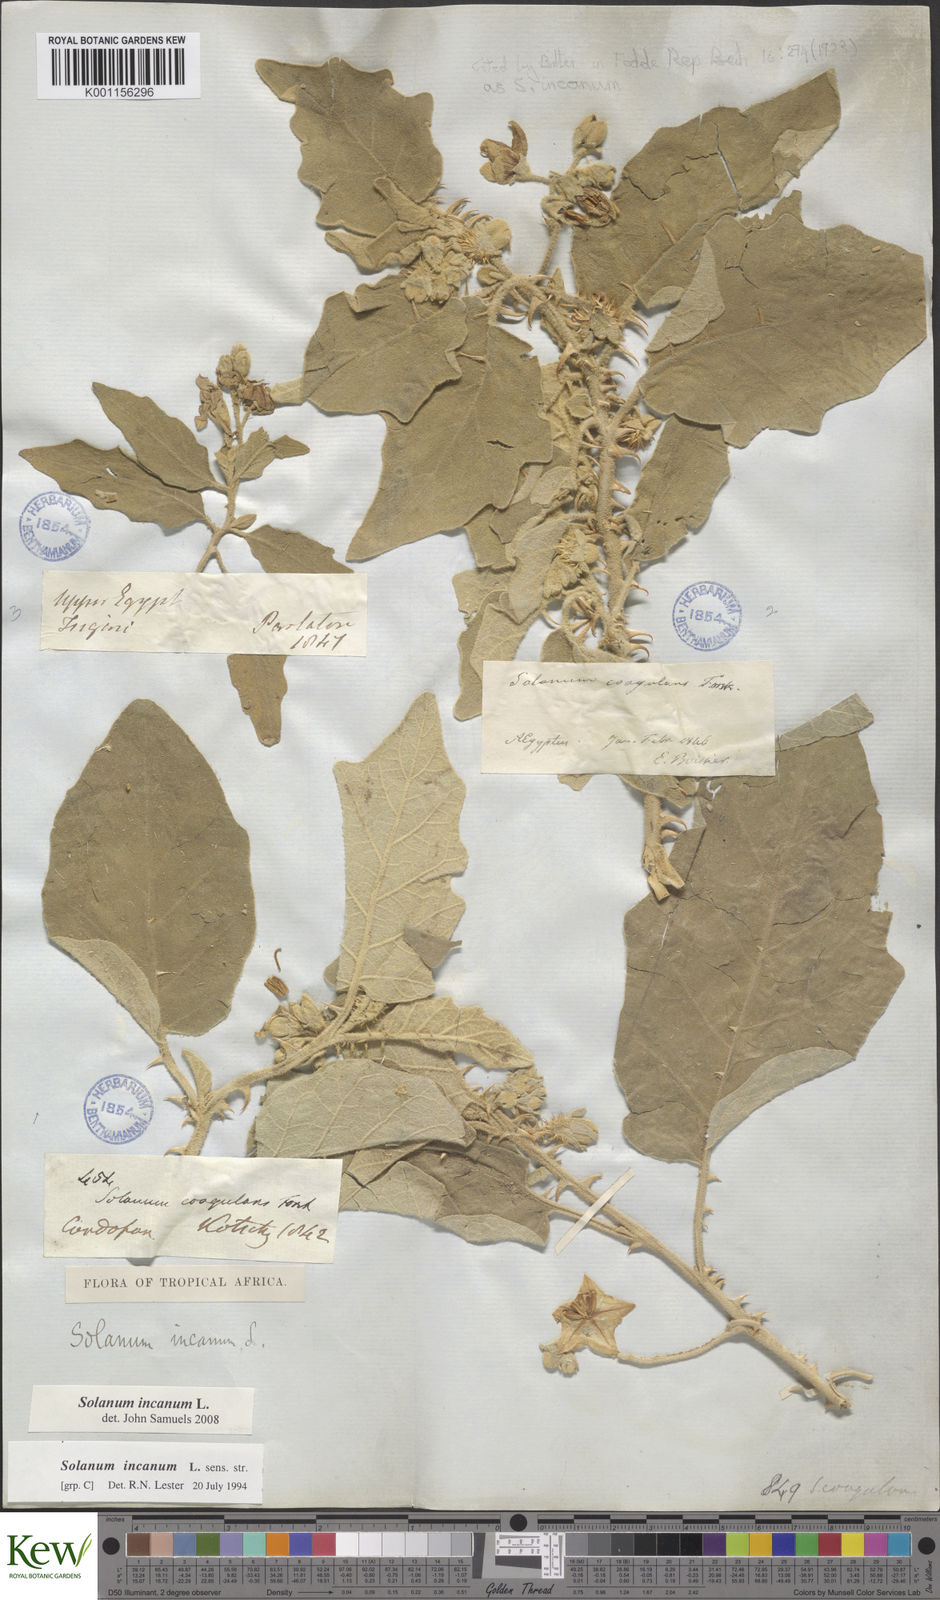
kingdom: Plantae
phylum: Tracheophyta
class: Magnoliopsida
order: Solanales
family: Solanaceae
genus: Solanum
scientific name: Solanum incanum
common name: Bitter apple
